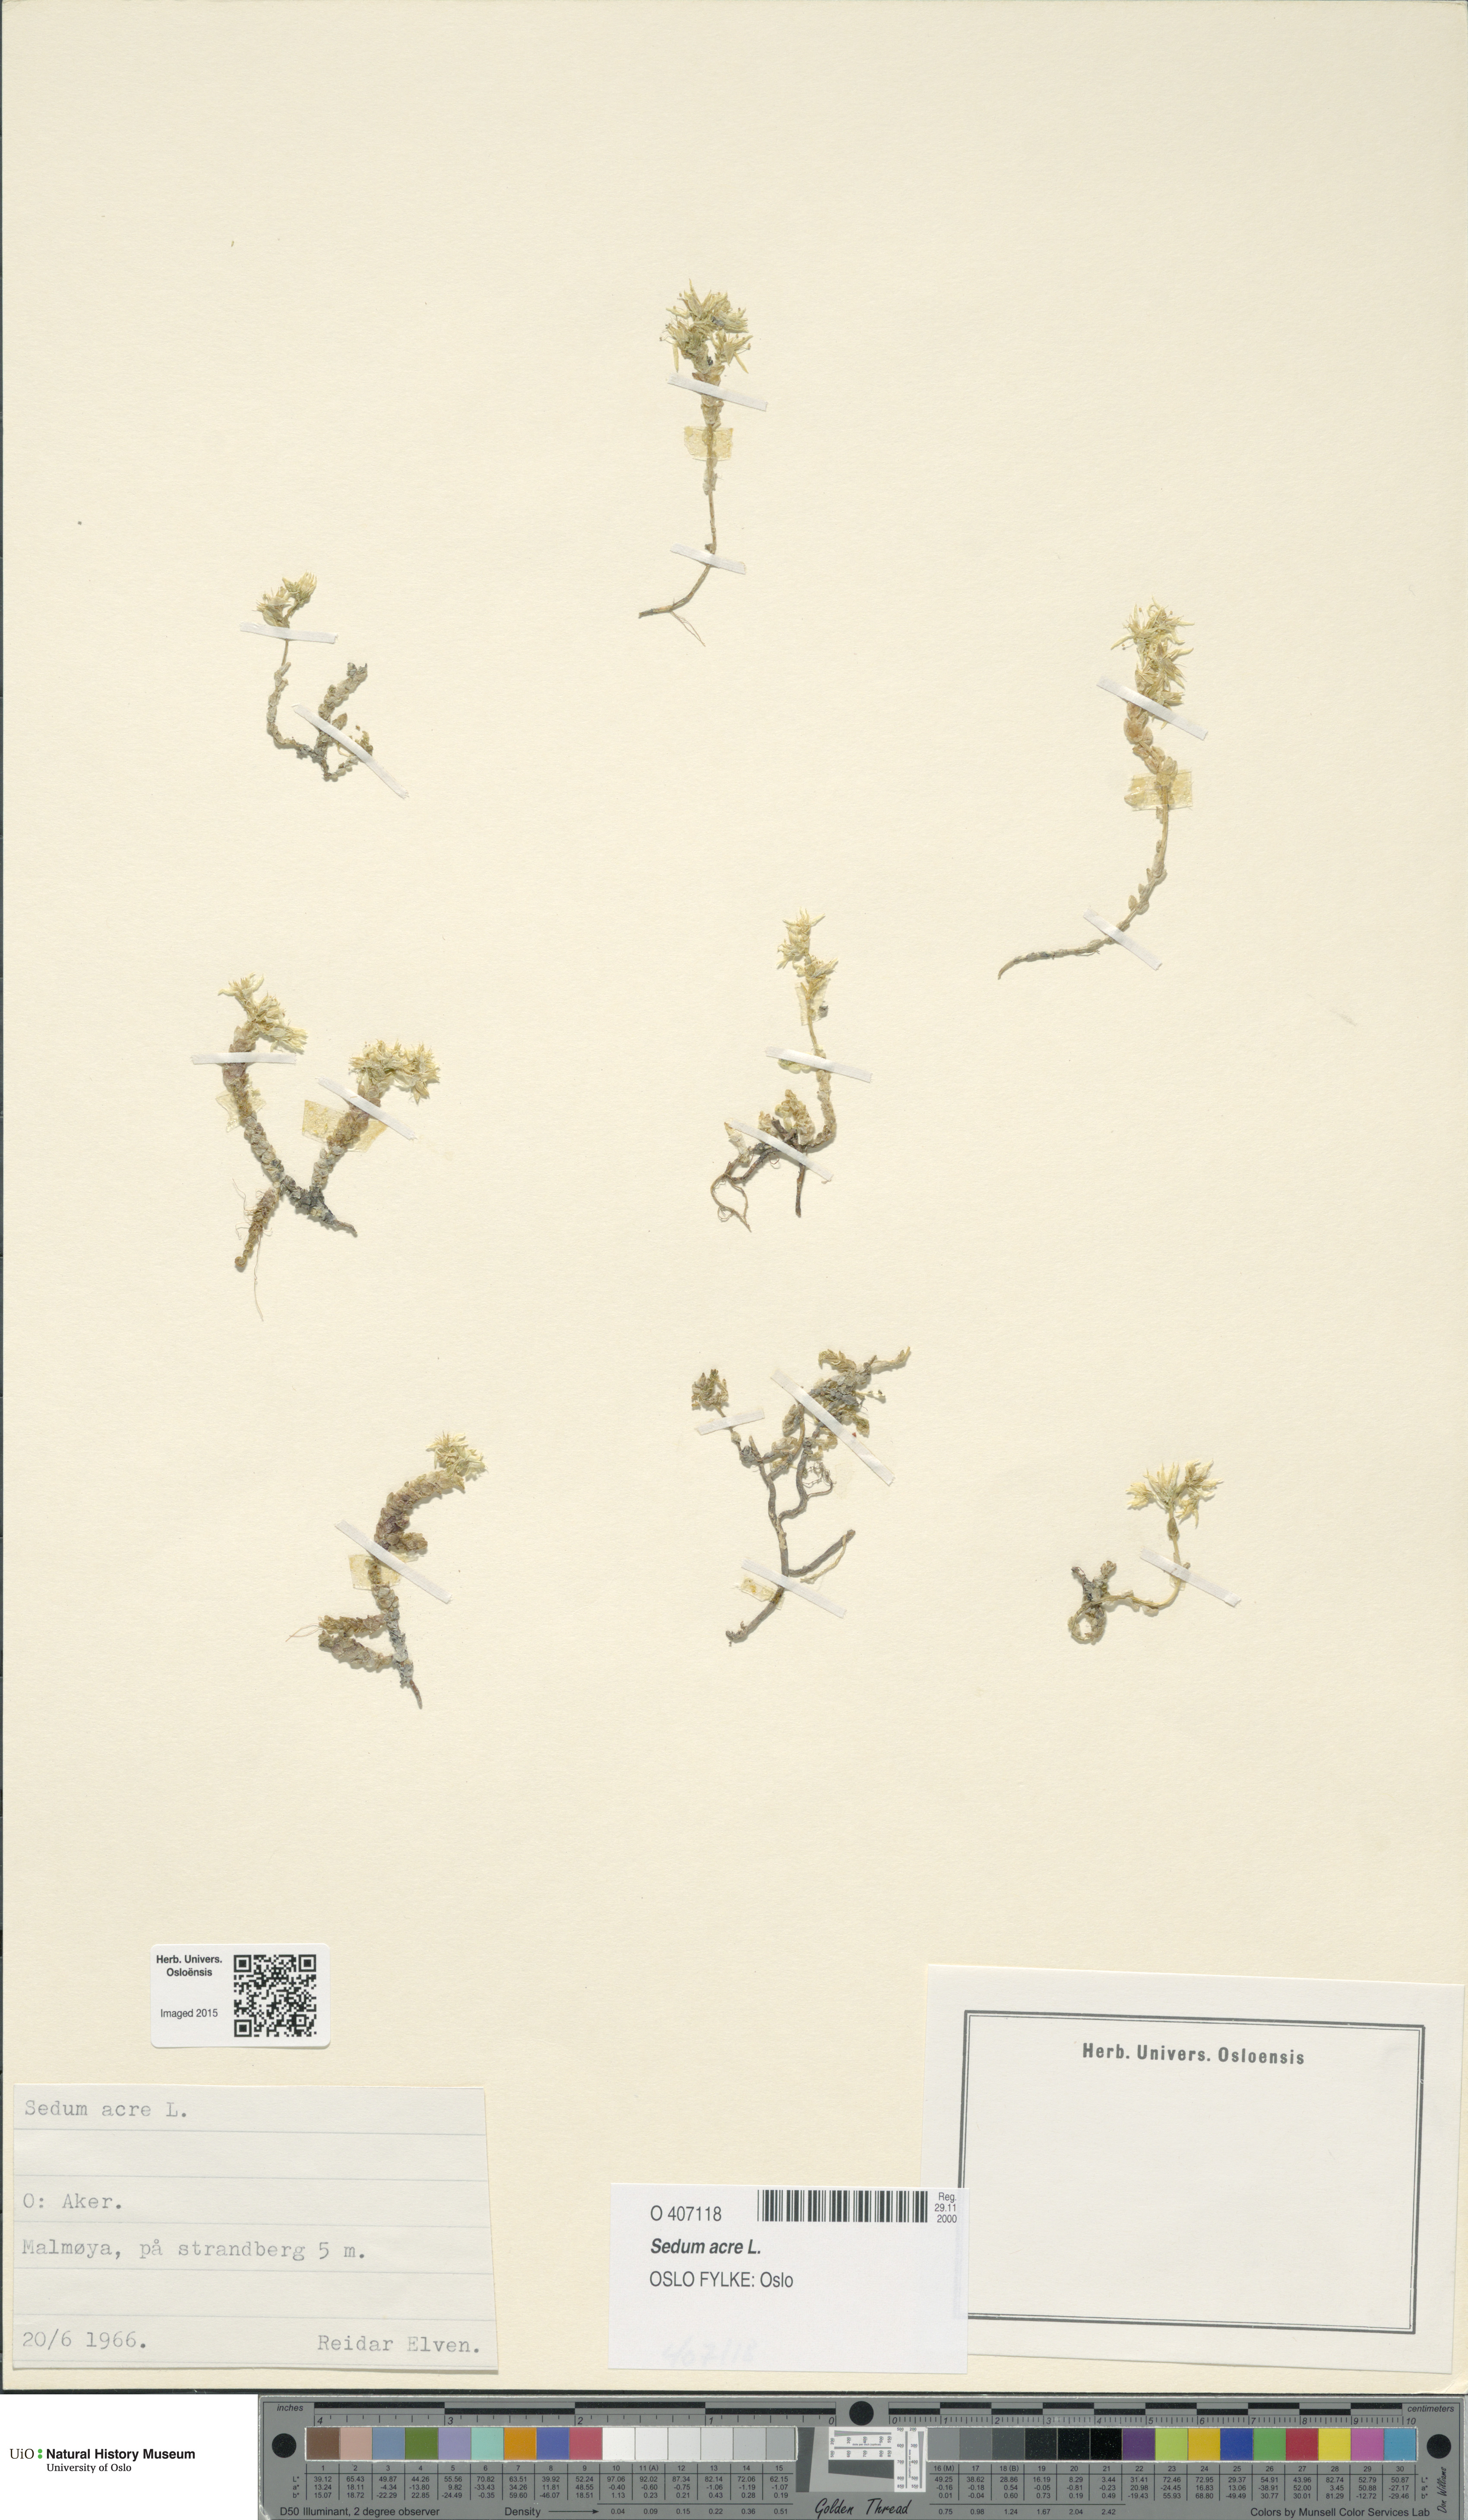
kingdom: Plantae
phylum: Tracheophyta
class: Magnoliopsida
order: Saxifragales
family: Crassulaceae
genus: Sedum
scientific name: Sedum acre
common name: Biting stonecrop
